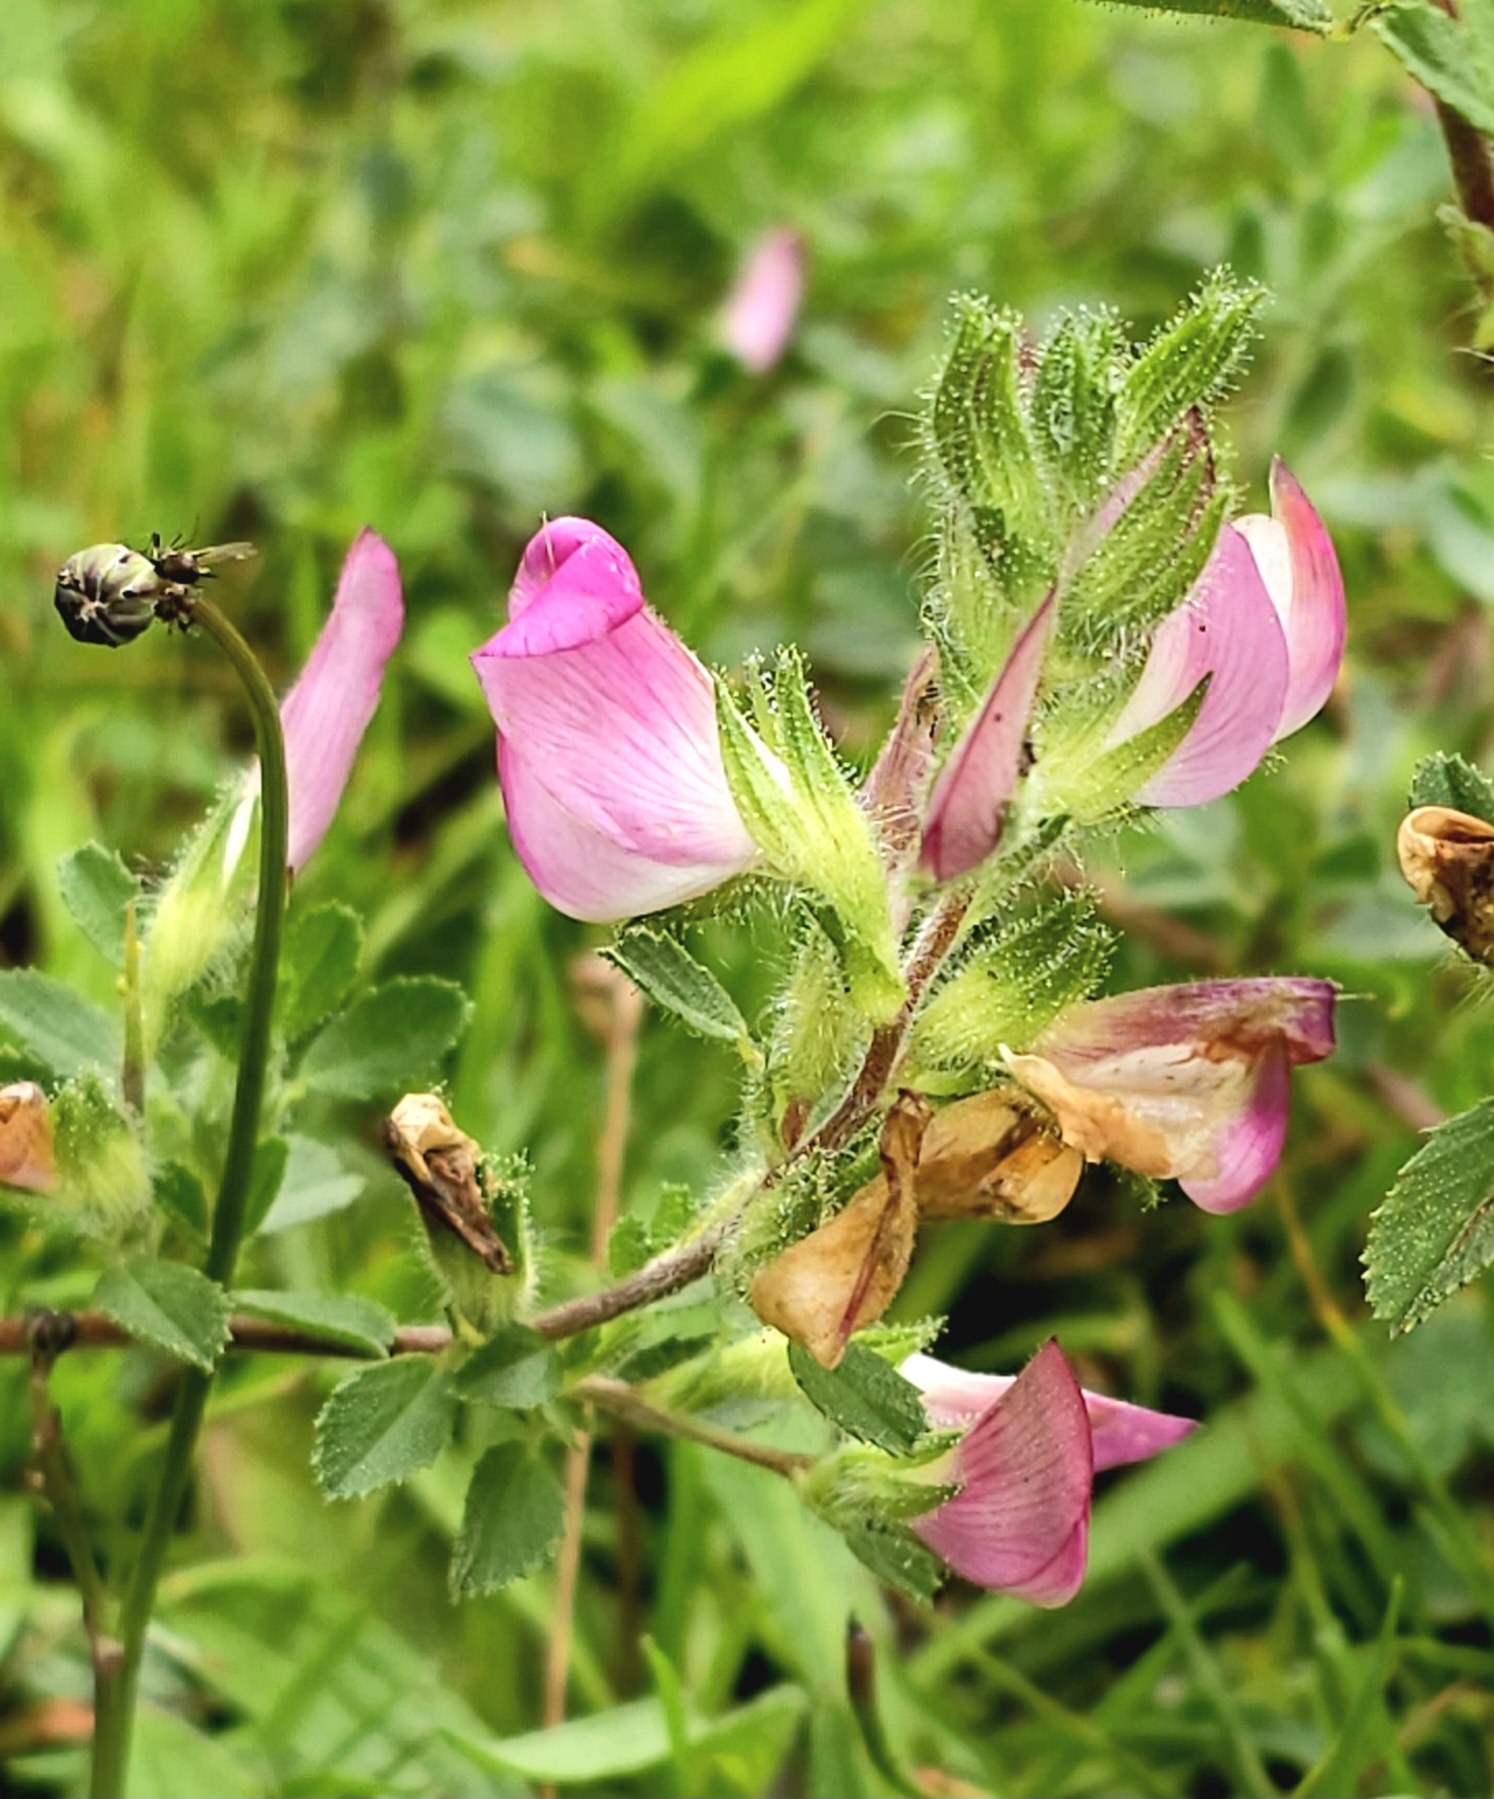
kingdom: Plantae
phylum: Tracheophyta
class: Magnoliopsida
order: Fabales
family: Fabaceae
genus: Ononis
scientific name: Ononis spinosa
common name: Mark-krageklo
